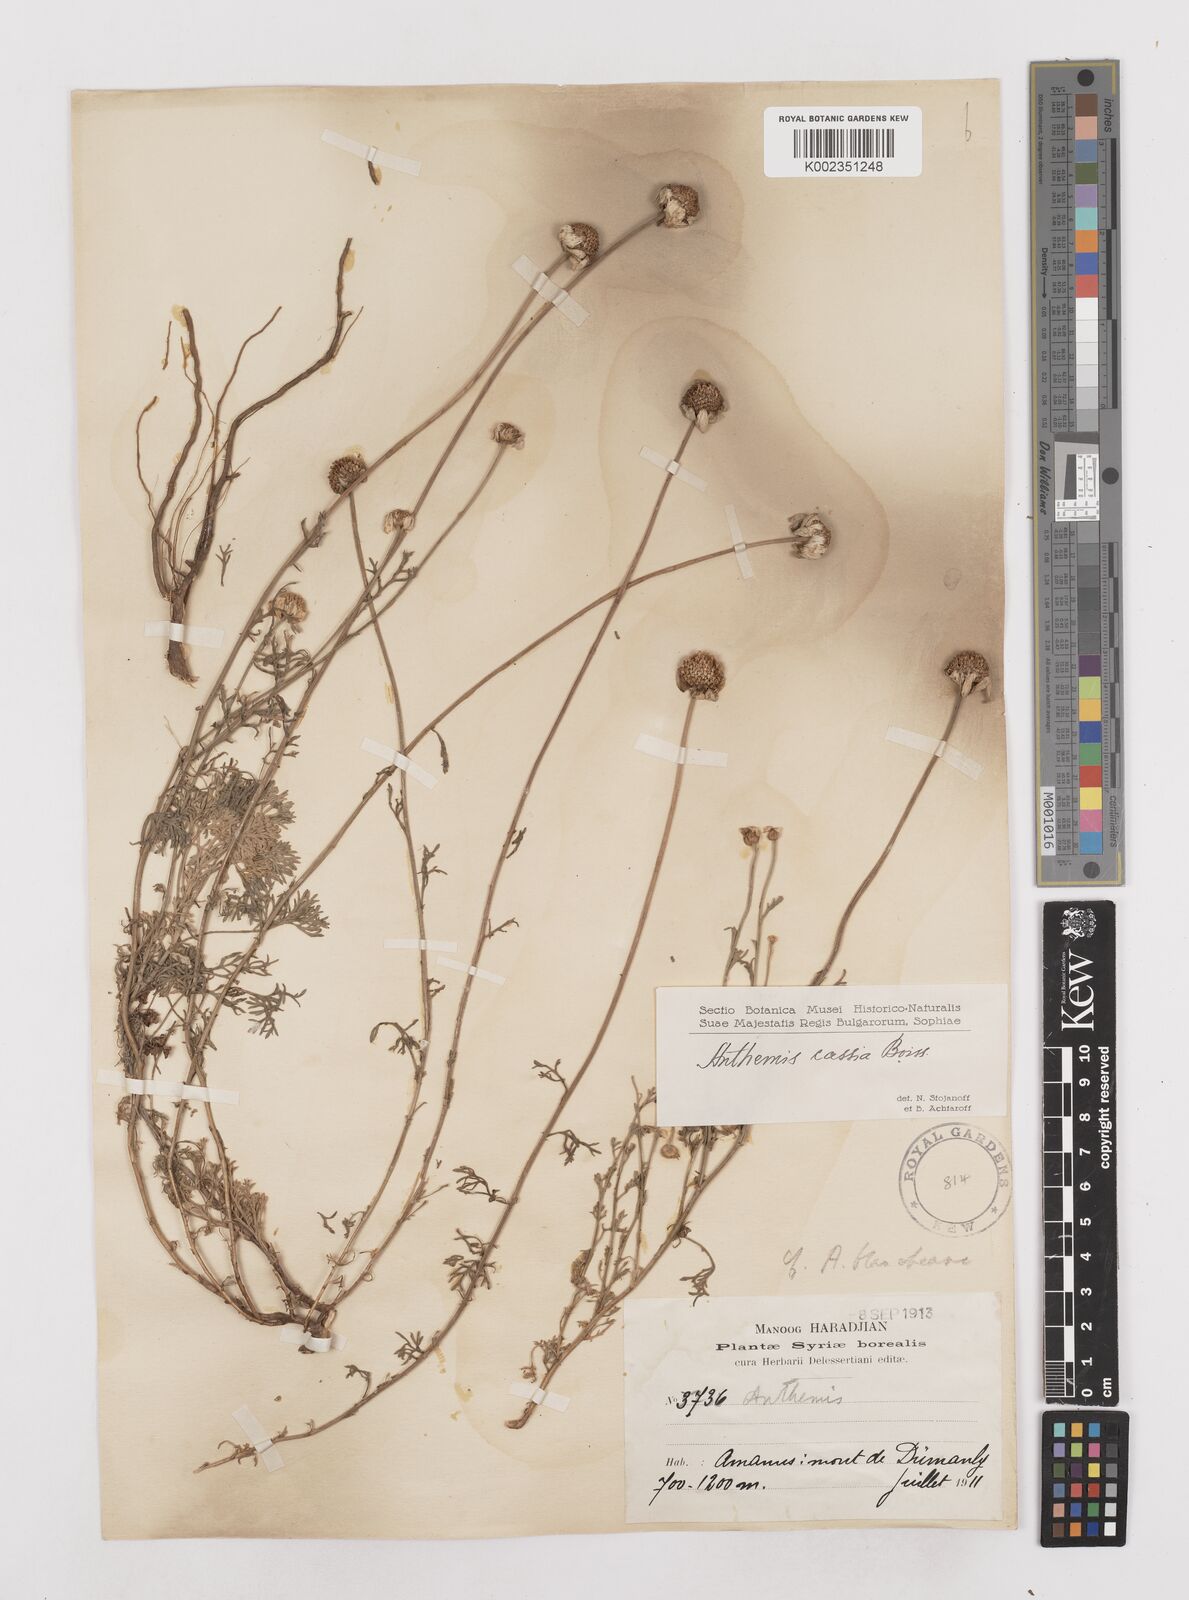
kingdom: Plantae
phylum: Tracheophyta
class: Magnoliopsida
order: Asterales
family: Asteraceae
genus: Anthemis
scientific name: Anthemis
